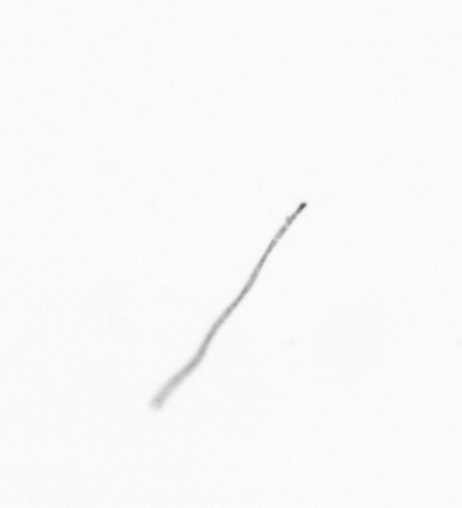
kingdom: Chromista
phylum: Ochrophyta
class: Bacillariophyceae
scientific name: Bacillariophyceae
